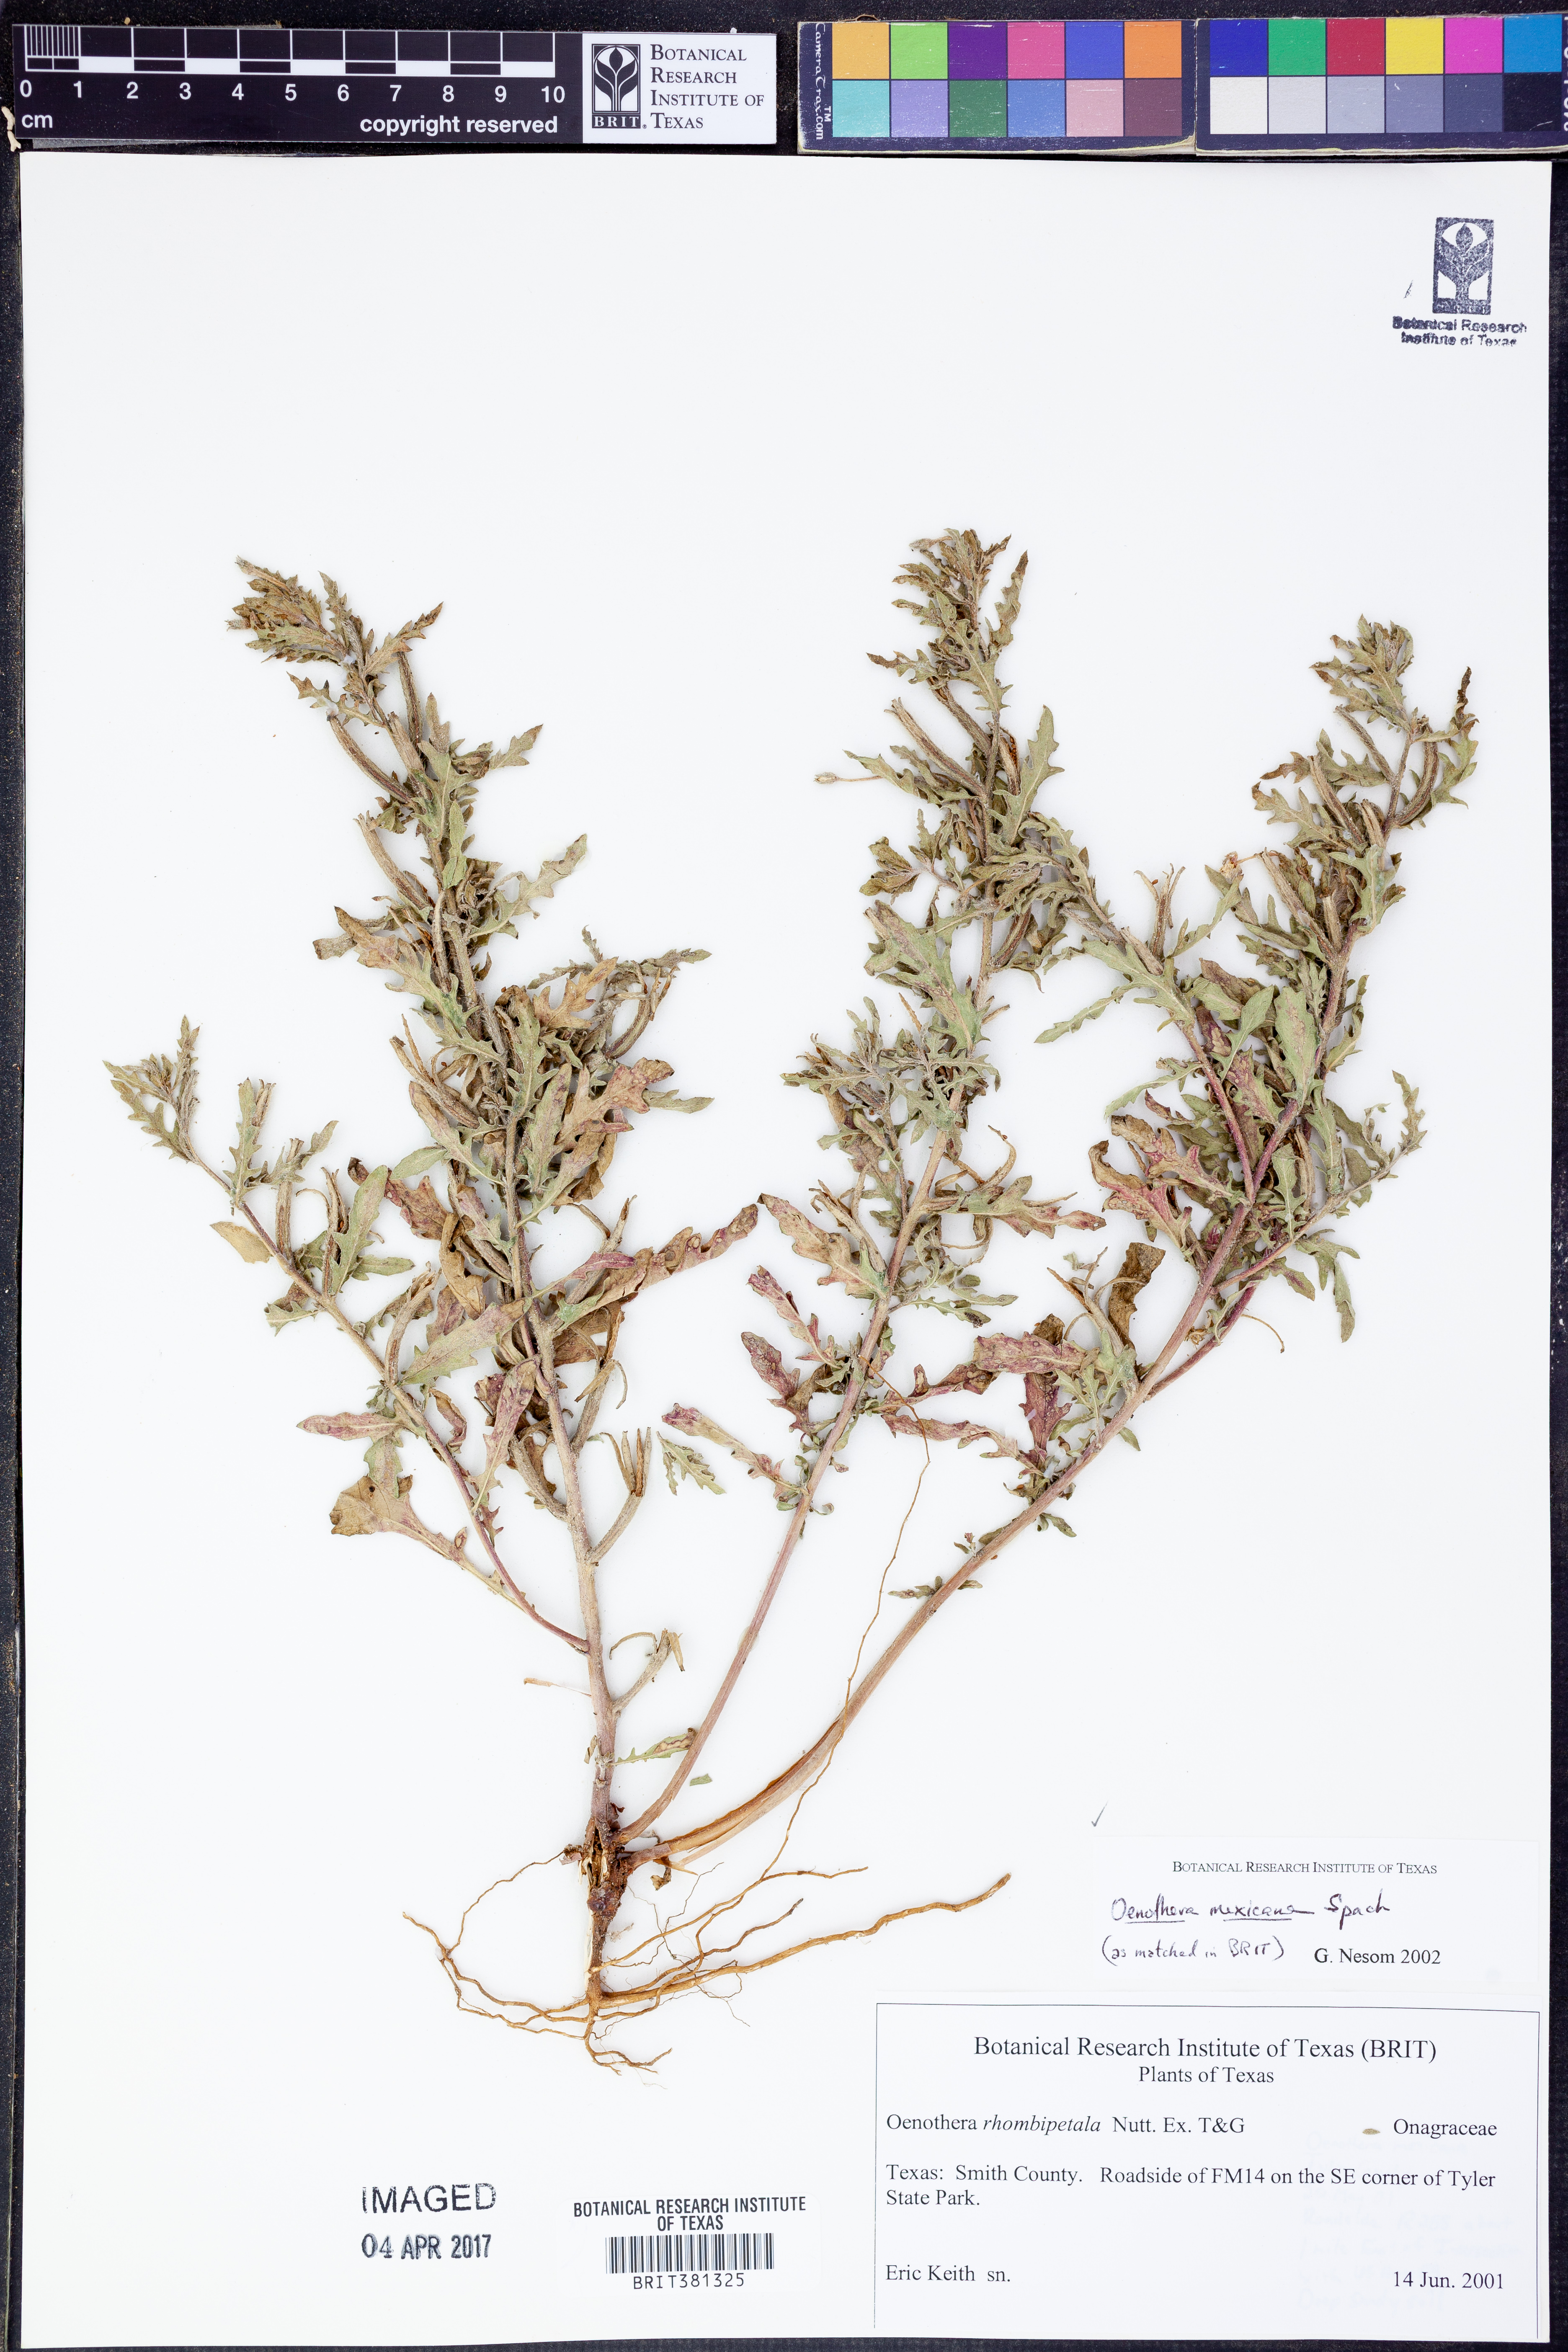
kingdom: Plantae
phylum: Tracheophyta
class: Magnoliopsida
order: Myrtales
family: Onagraceae
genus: Oenothera
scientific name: Oenothera mexicana
